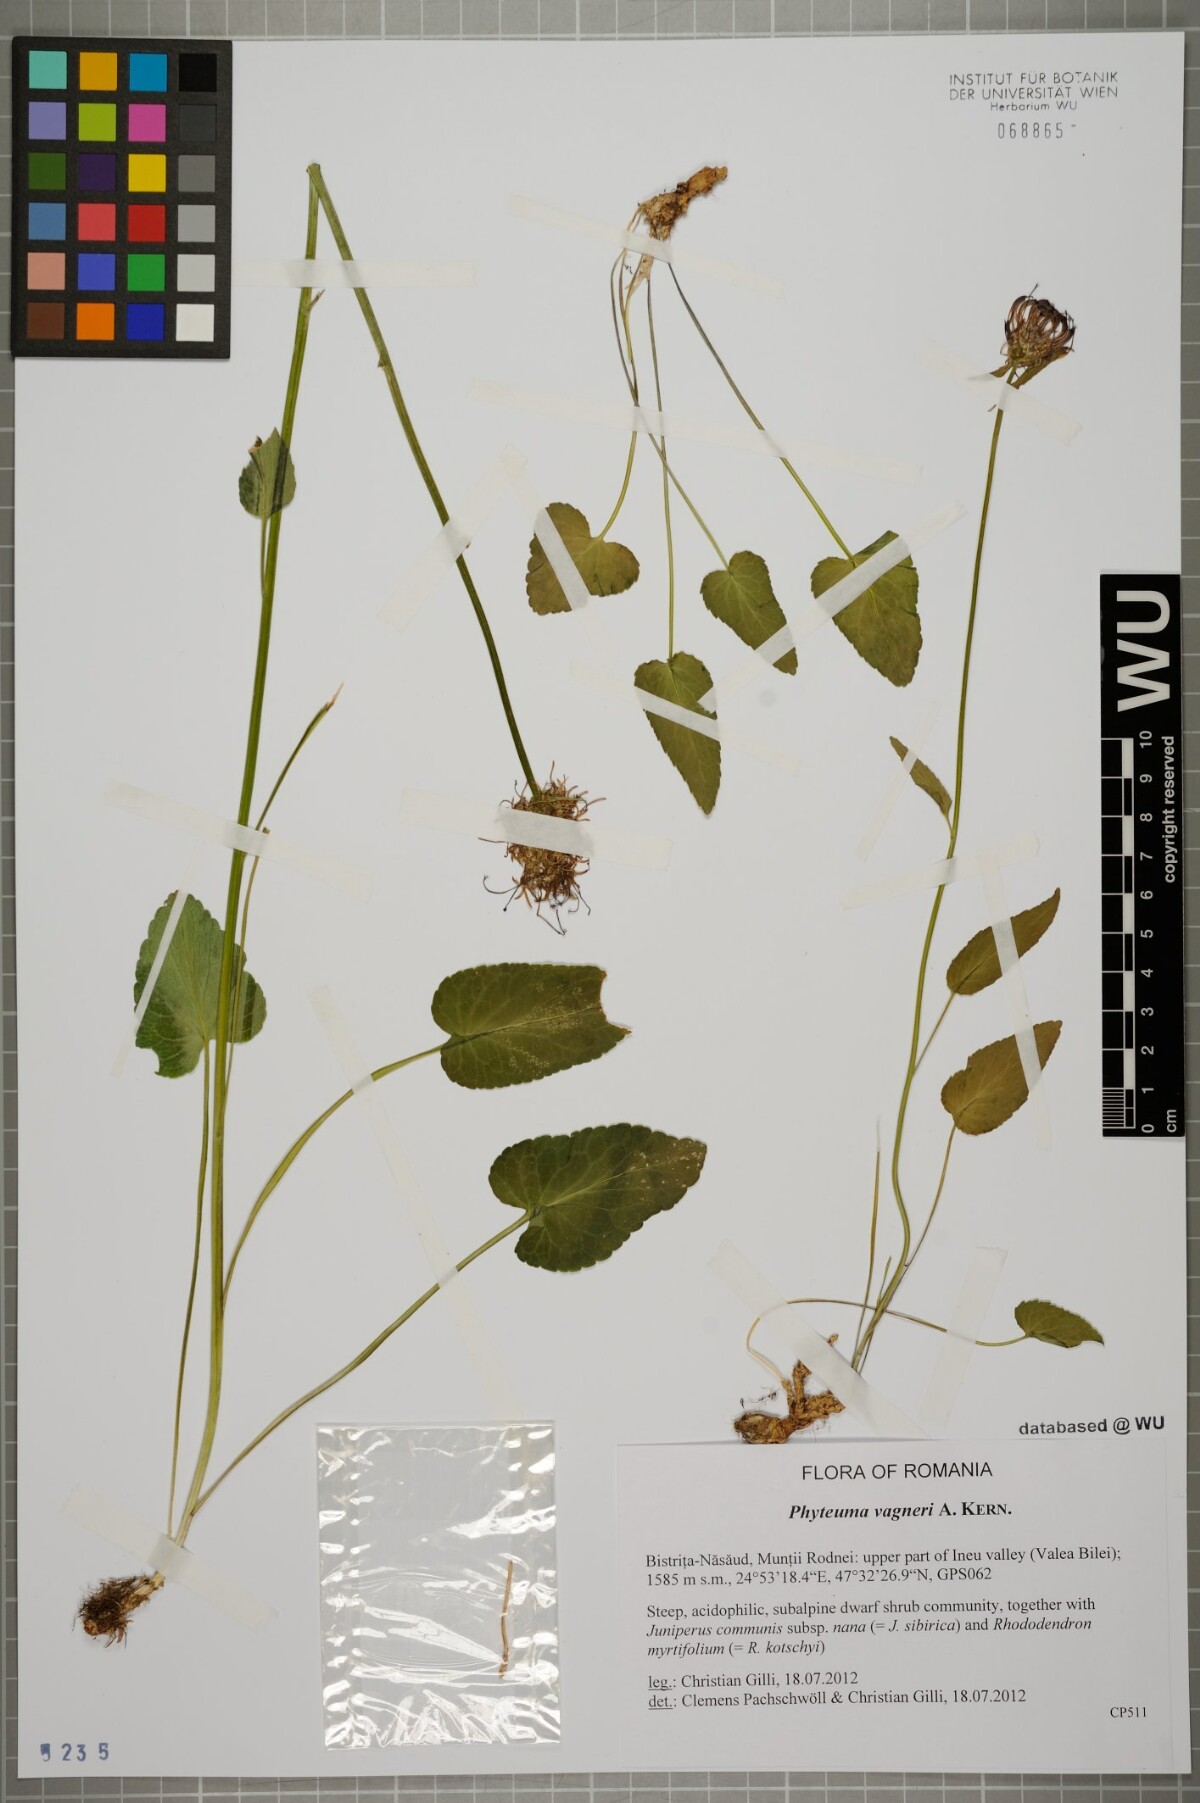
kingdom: Plantae
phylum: Tracheophyta
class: Magnoliopsida
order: Asterales
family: Campanulaceae
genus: Phyteuma
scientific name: Phyteuma vagneri
